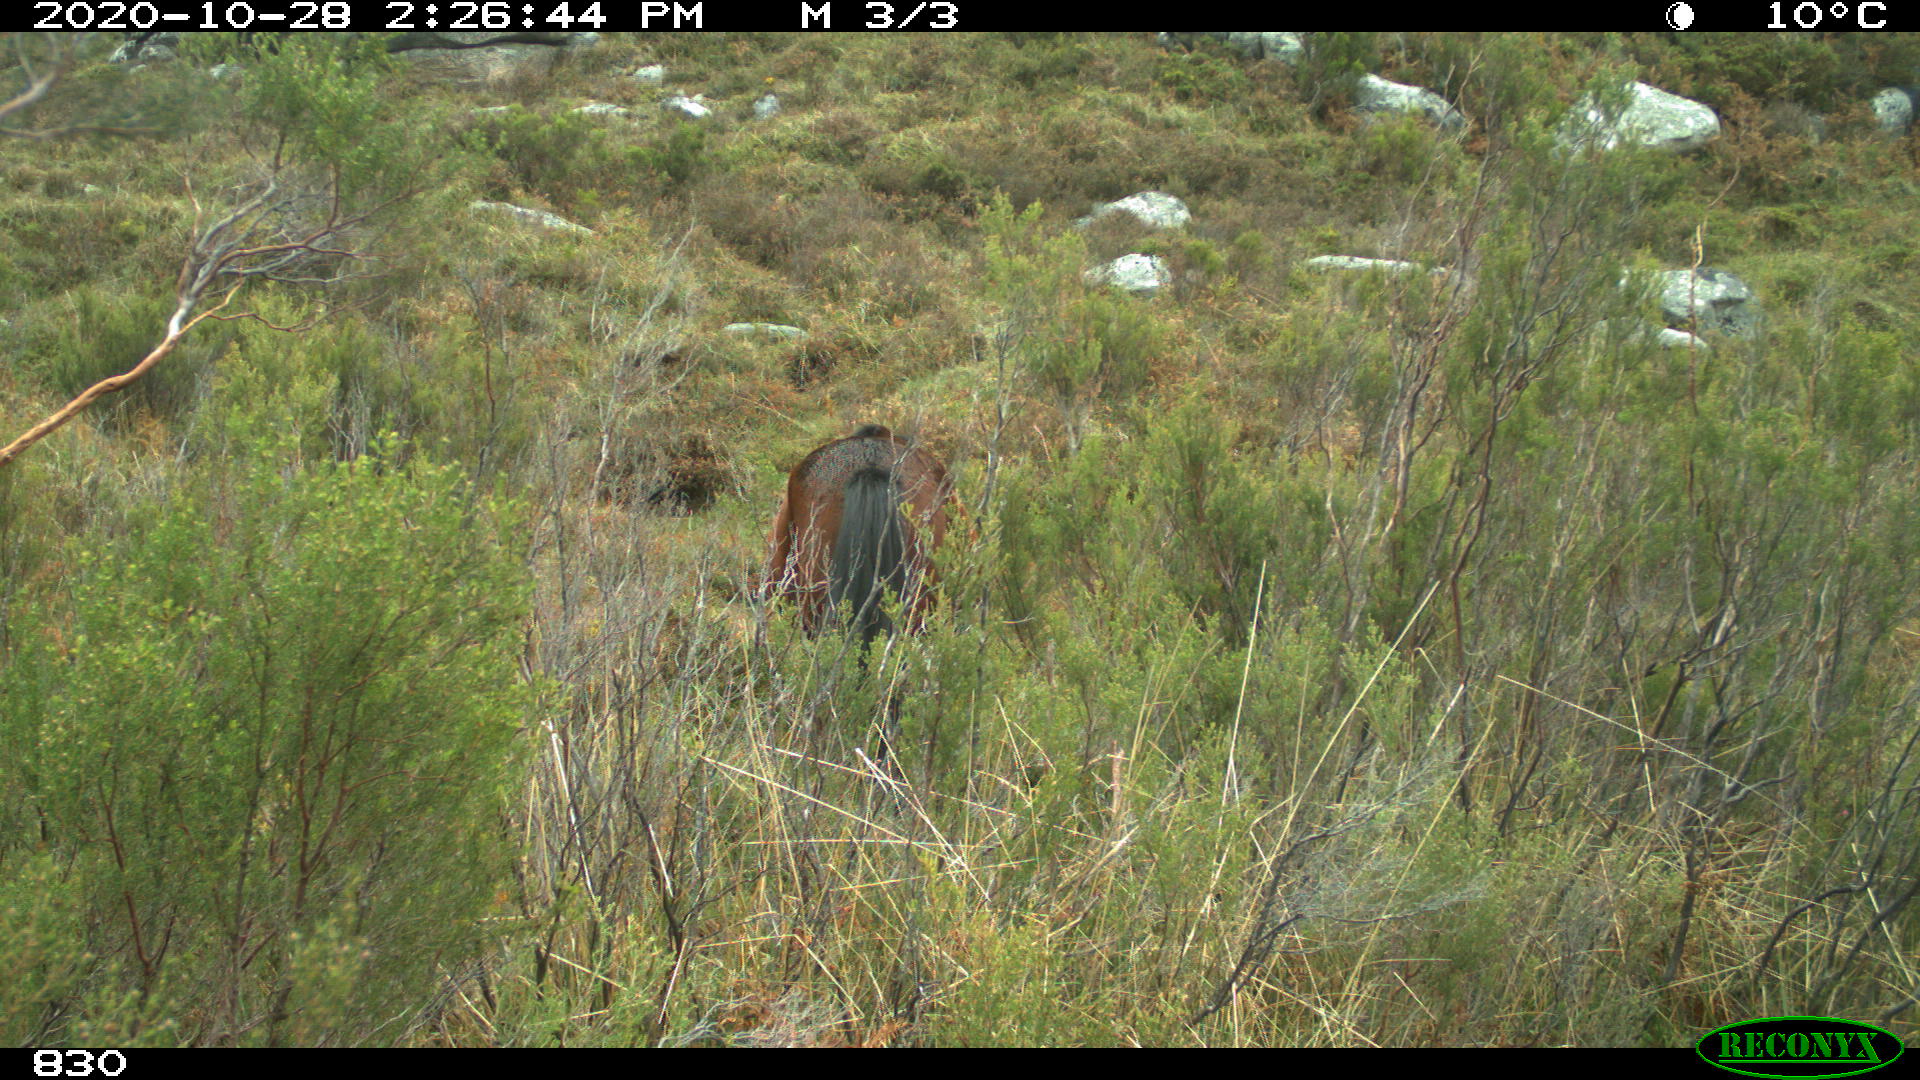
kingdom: Animalia
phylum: Chordata
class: Mammalia
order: Perissodactyla
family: Equidae
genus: Equus
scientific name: Equus caballus
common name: Horse
